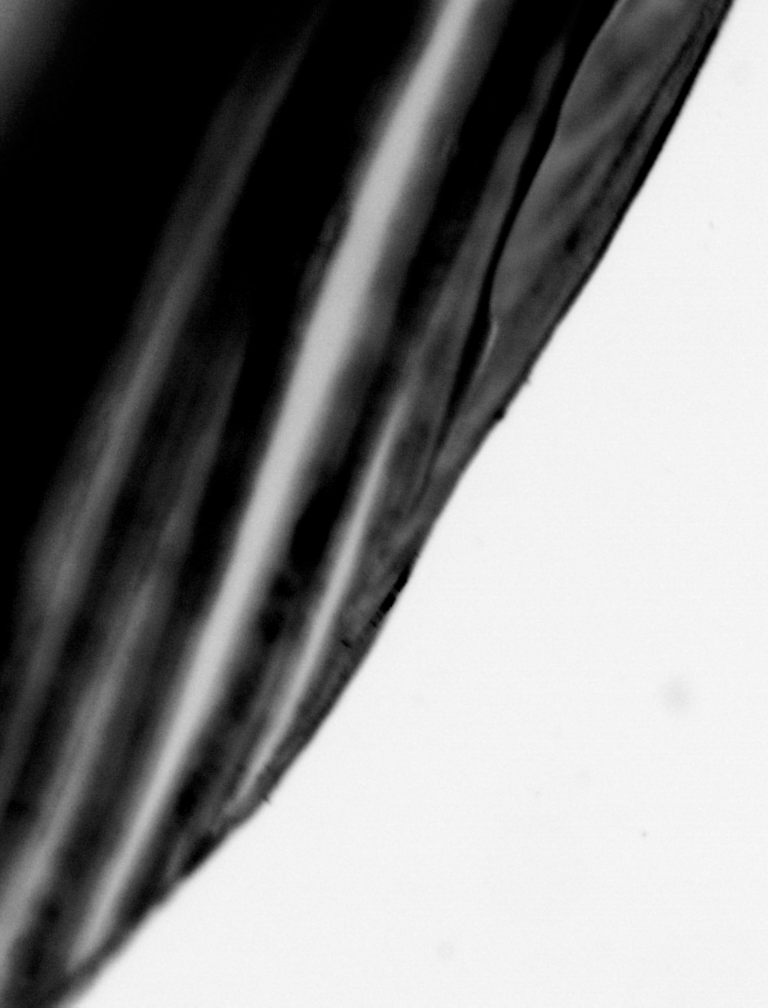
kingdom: Animalia
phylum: Chordata
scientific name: Chordata
